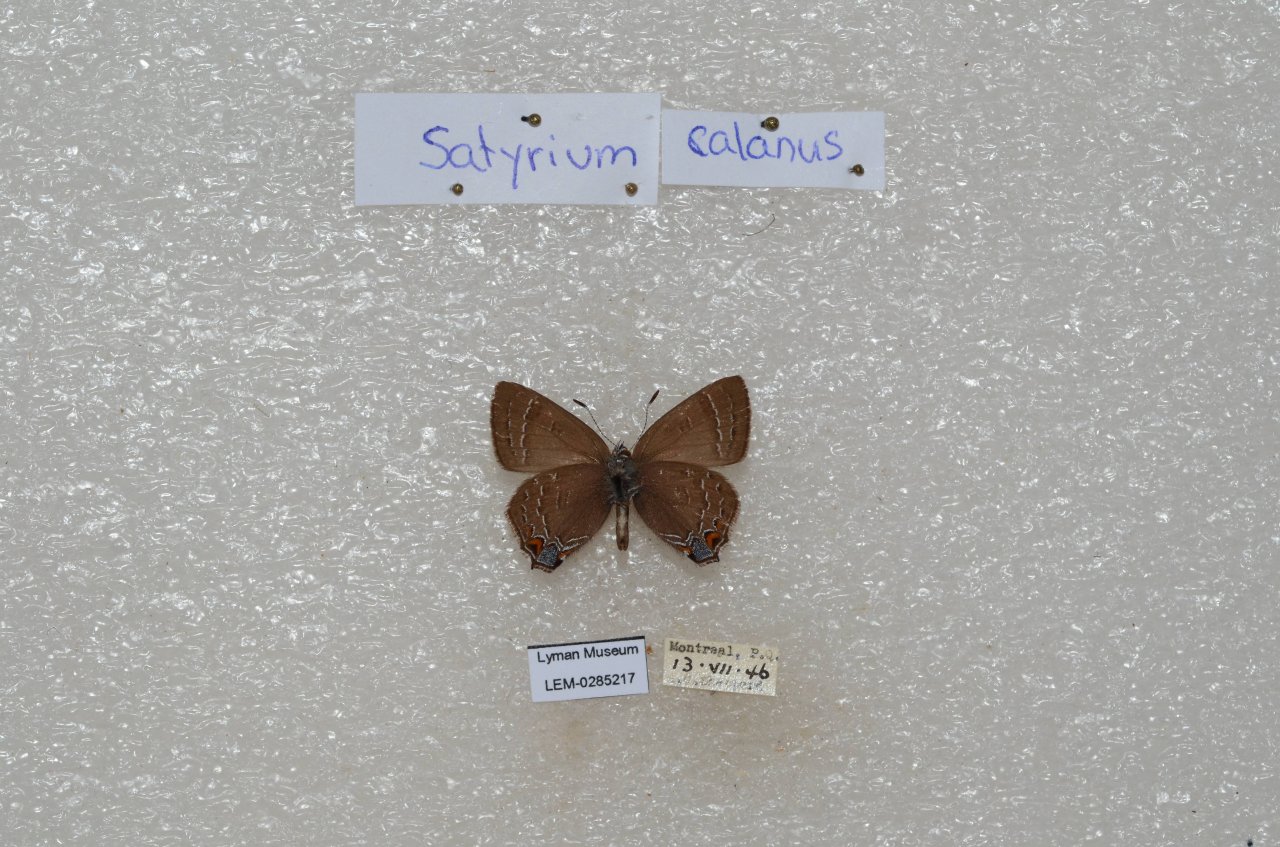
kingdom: Animalia
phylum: Arthropoda
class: Insecta
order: Lepidoptera
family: Lycaenidae
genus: Satyrium
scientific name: Satyrium calanus
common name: Banded Hairstreak
